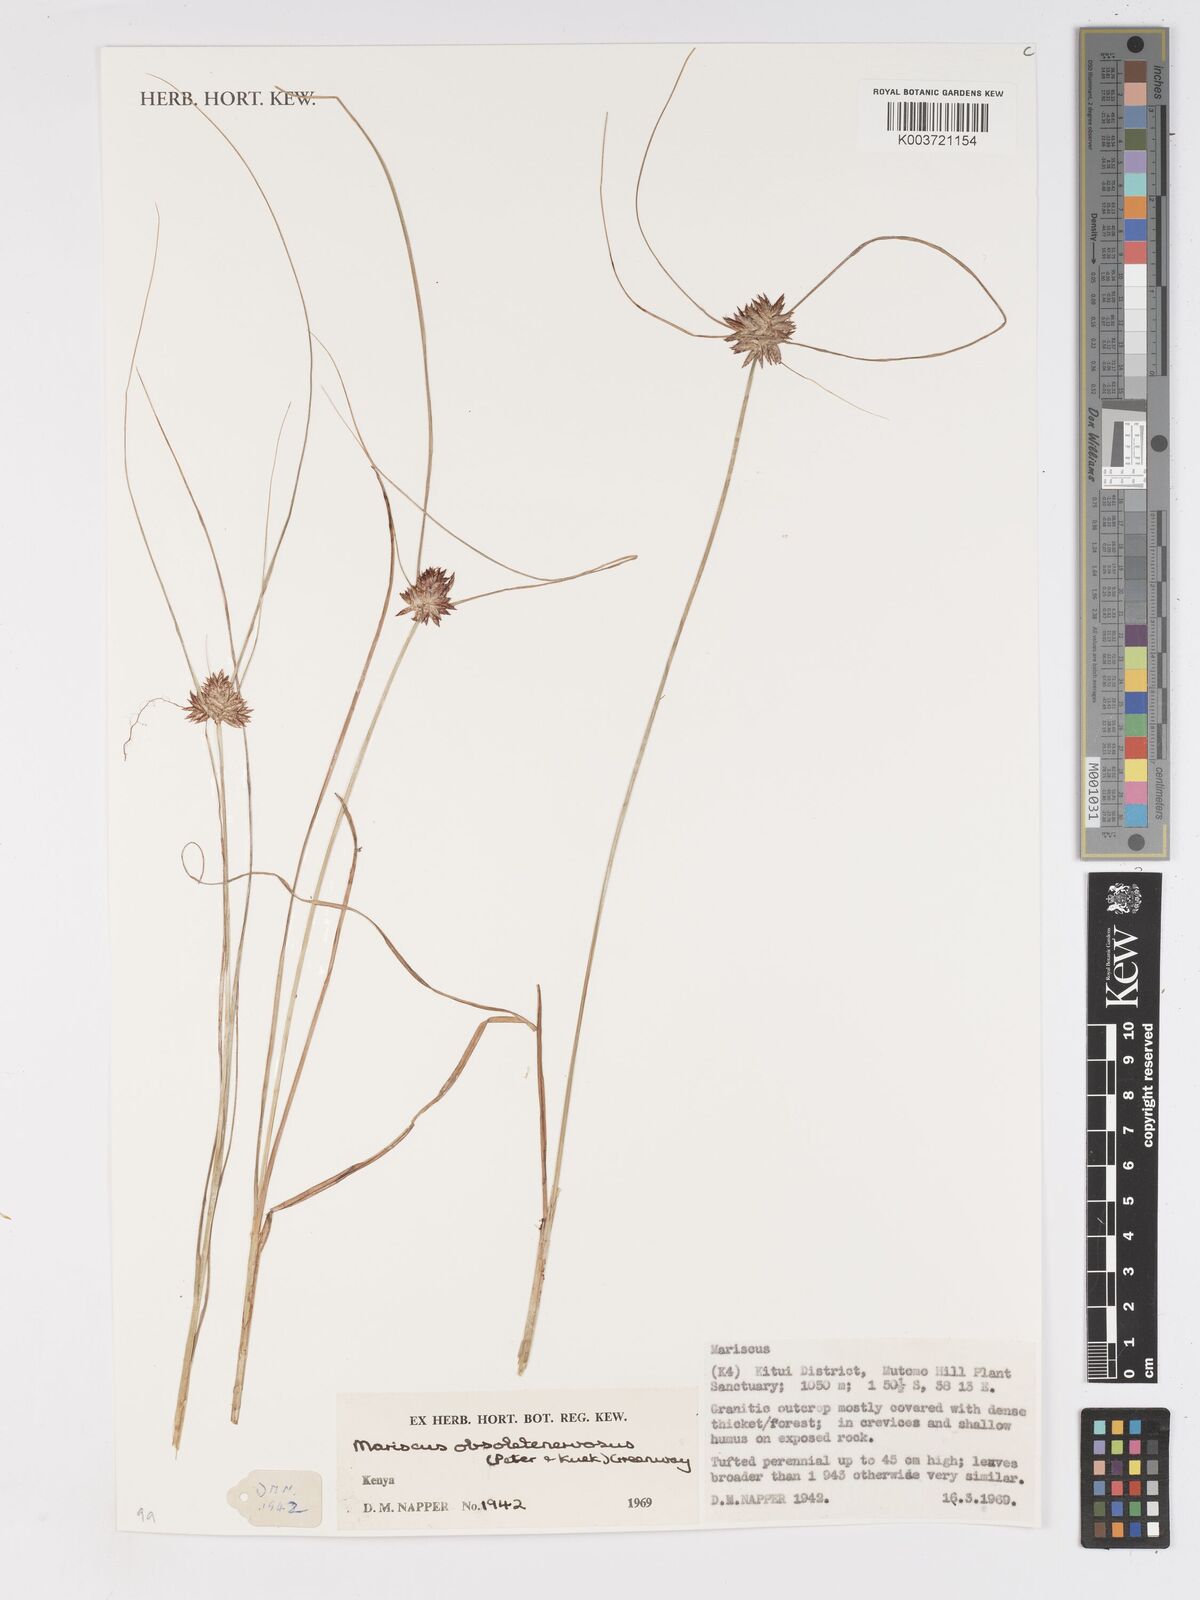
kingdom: Plantae
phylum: Tracheophyta
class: Liliopsida
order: Poales
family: Cyperaceae
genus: Cyperus
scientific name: Cyperus vestitus
